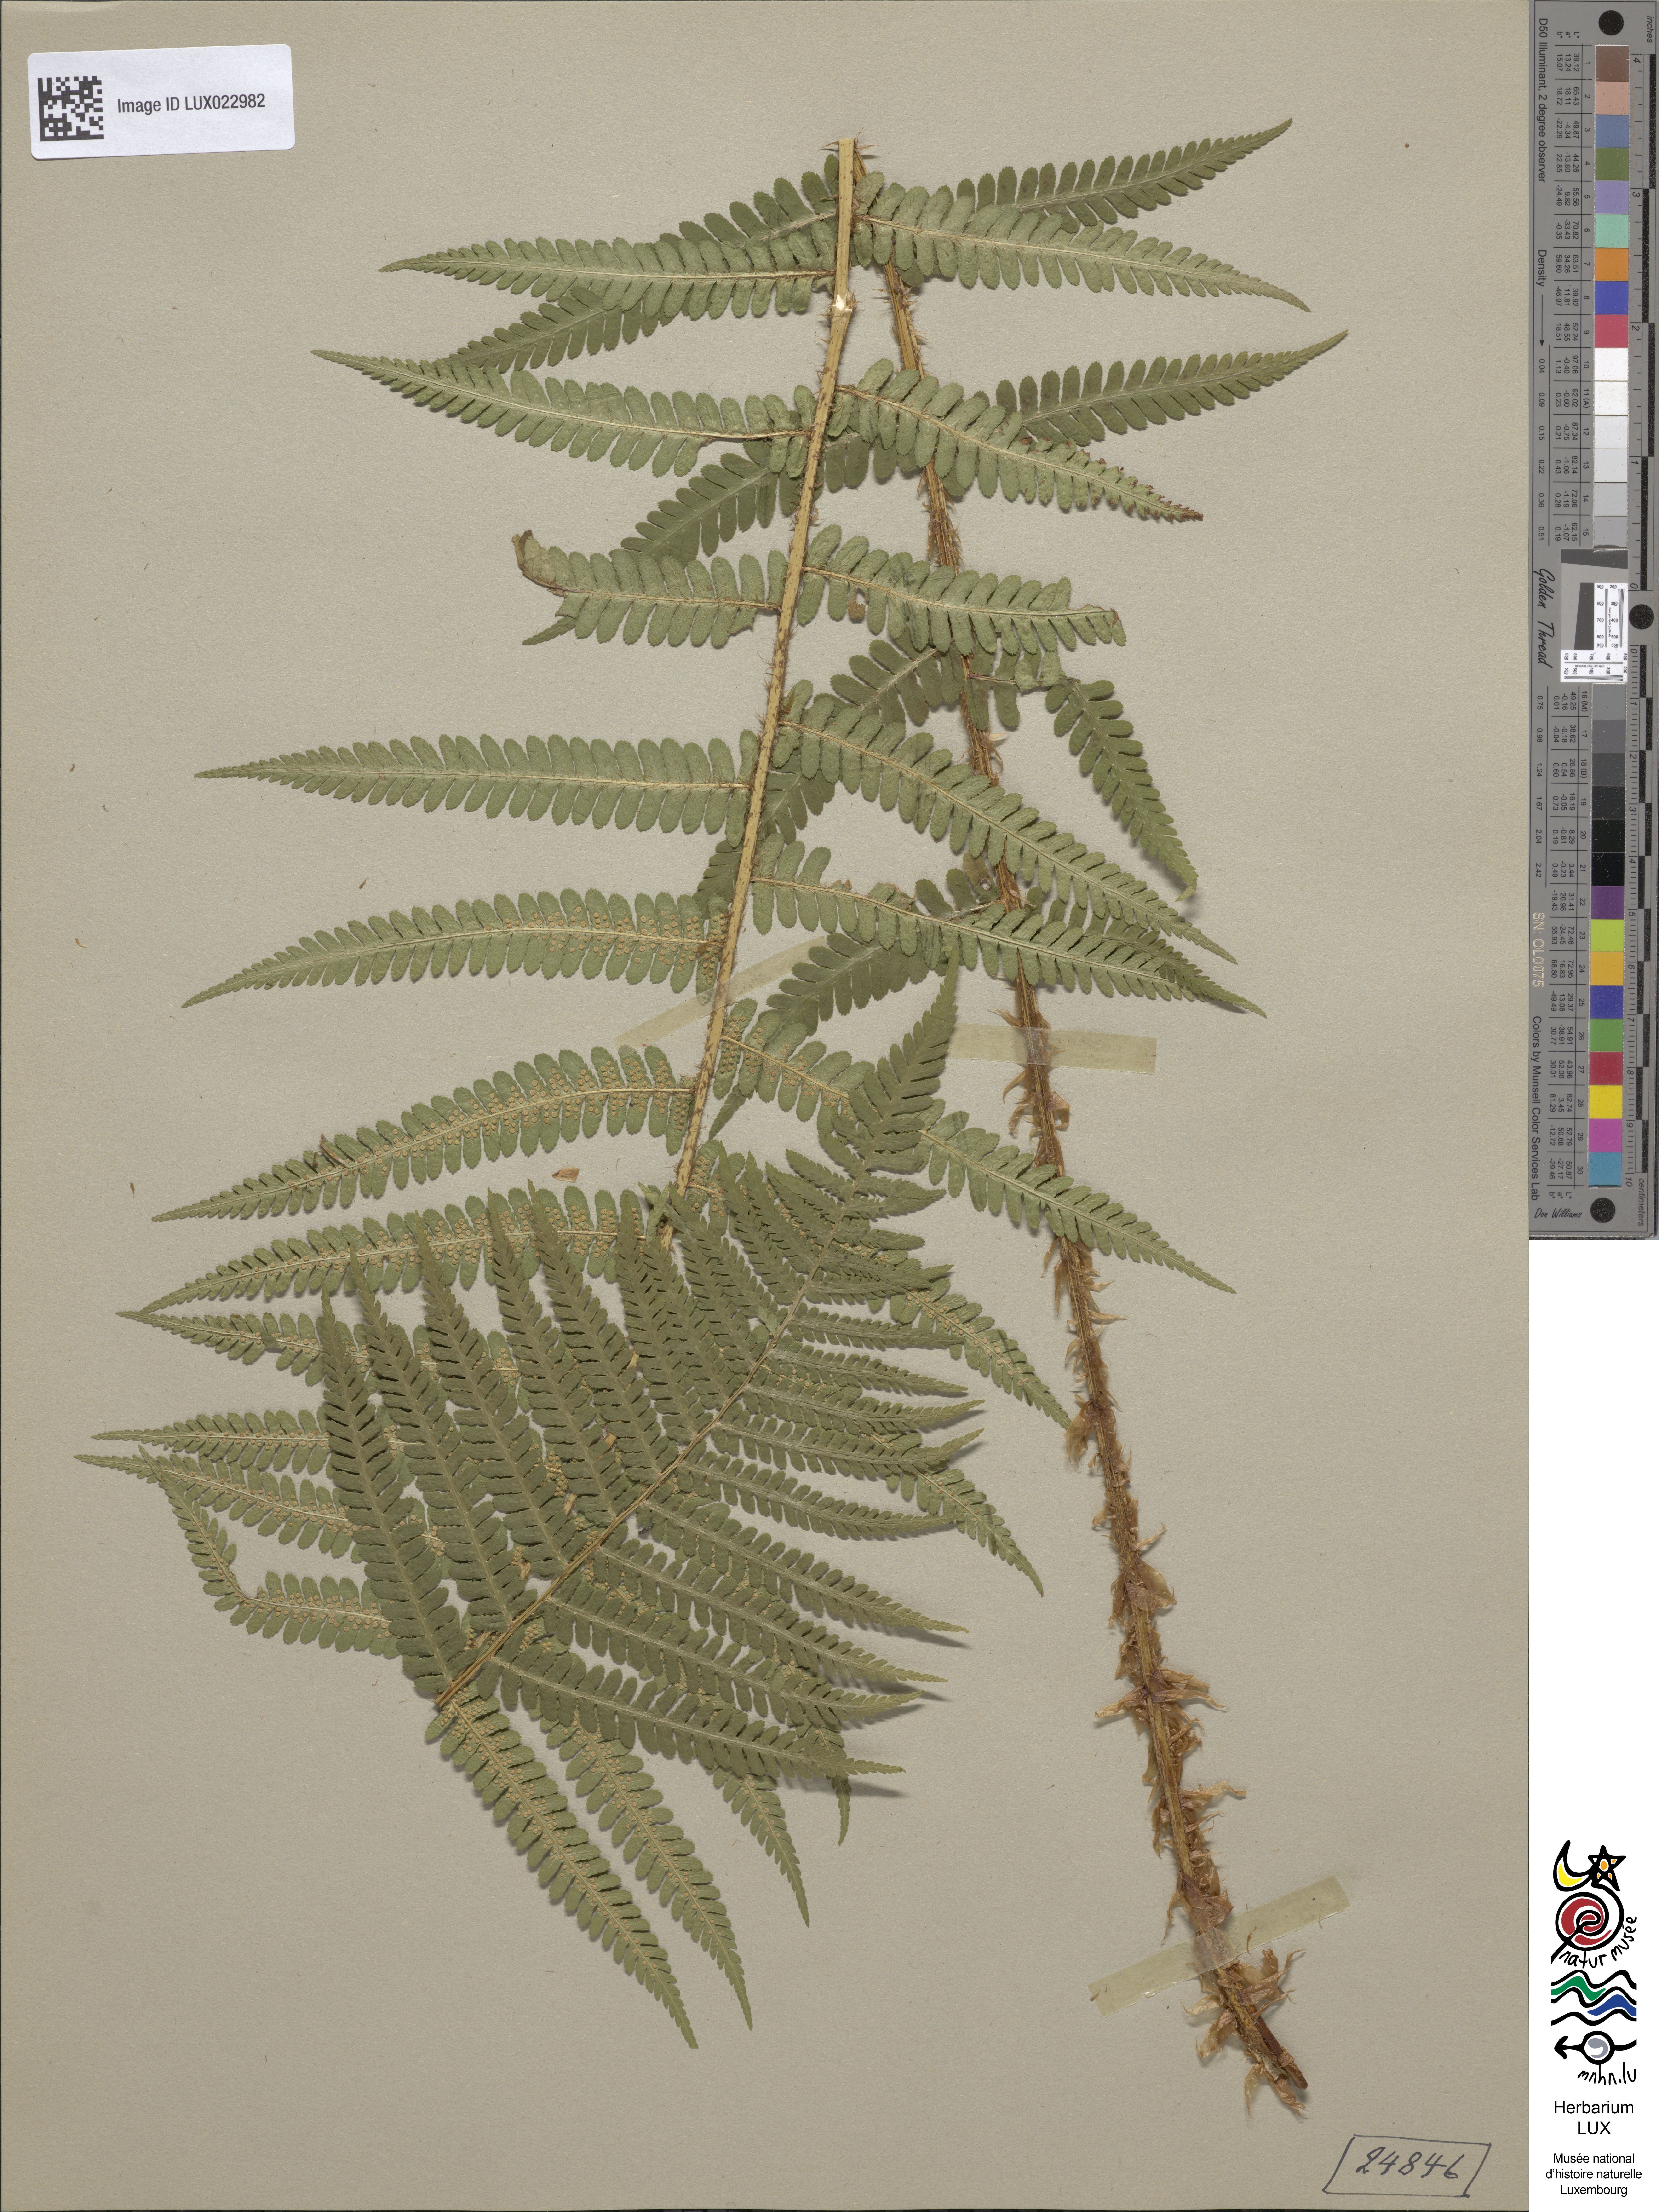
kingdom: Plantae
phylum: Tracheophyta
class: Polypodiopsida
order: Polypodiales
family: Dryopteridaceae
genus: Dryopteris
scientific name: Dryopteris filix-mas
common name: Male fern
